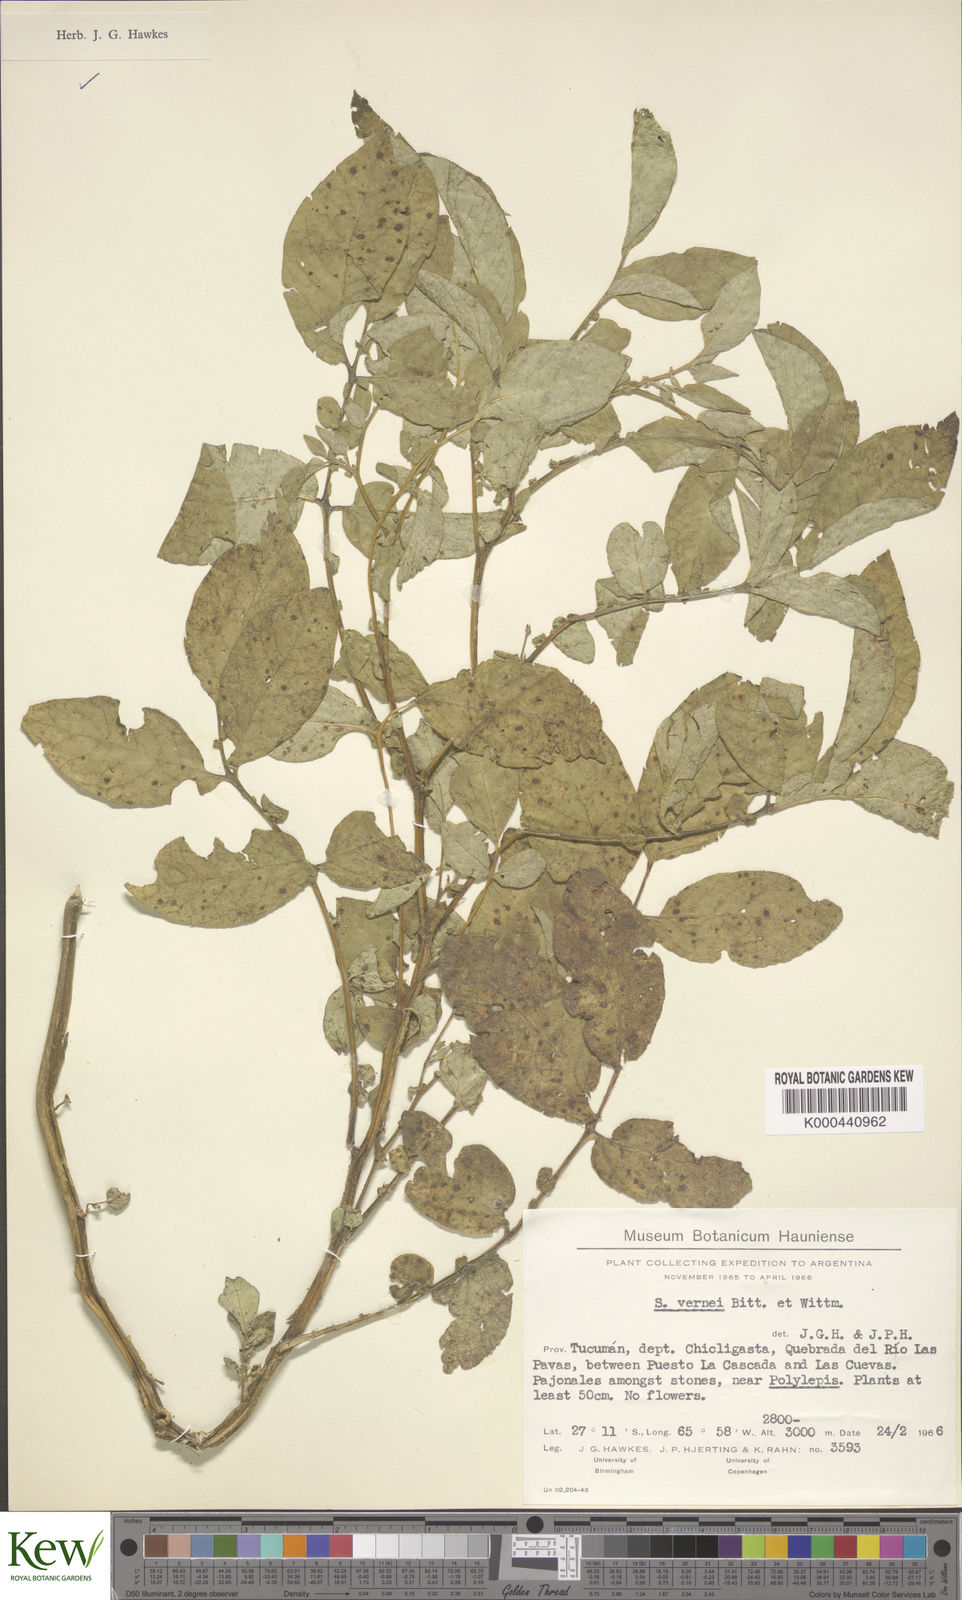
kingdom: Plantae
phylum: Tracheophyta
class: Magnoliopsida
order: Solanales
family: Solanaceae
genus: Solanum
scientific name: Solanum vernei
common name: Purple potato
